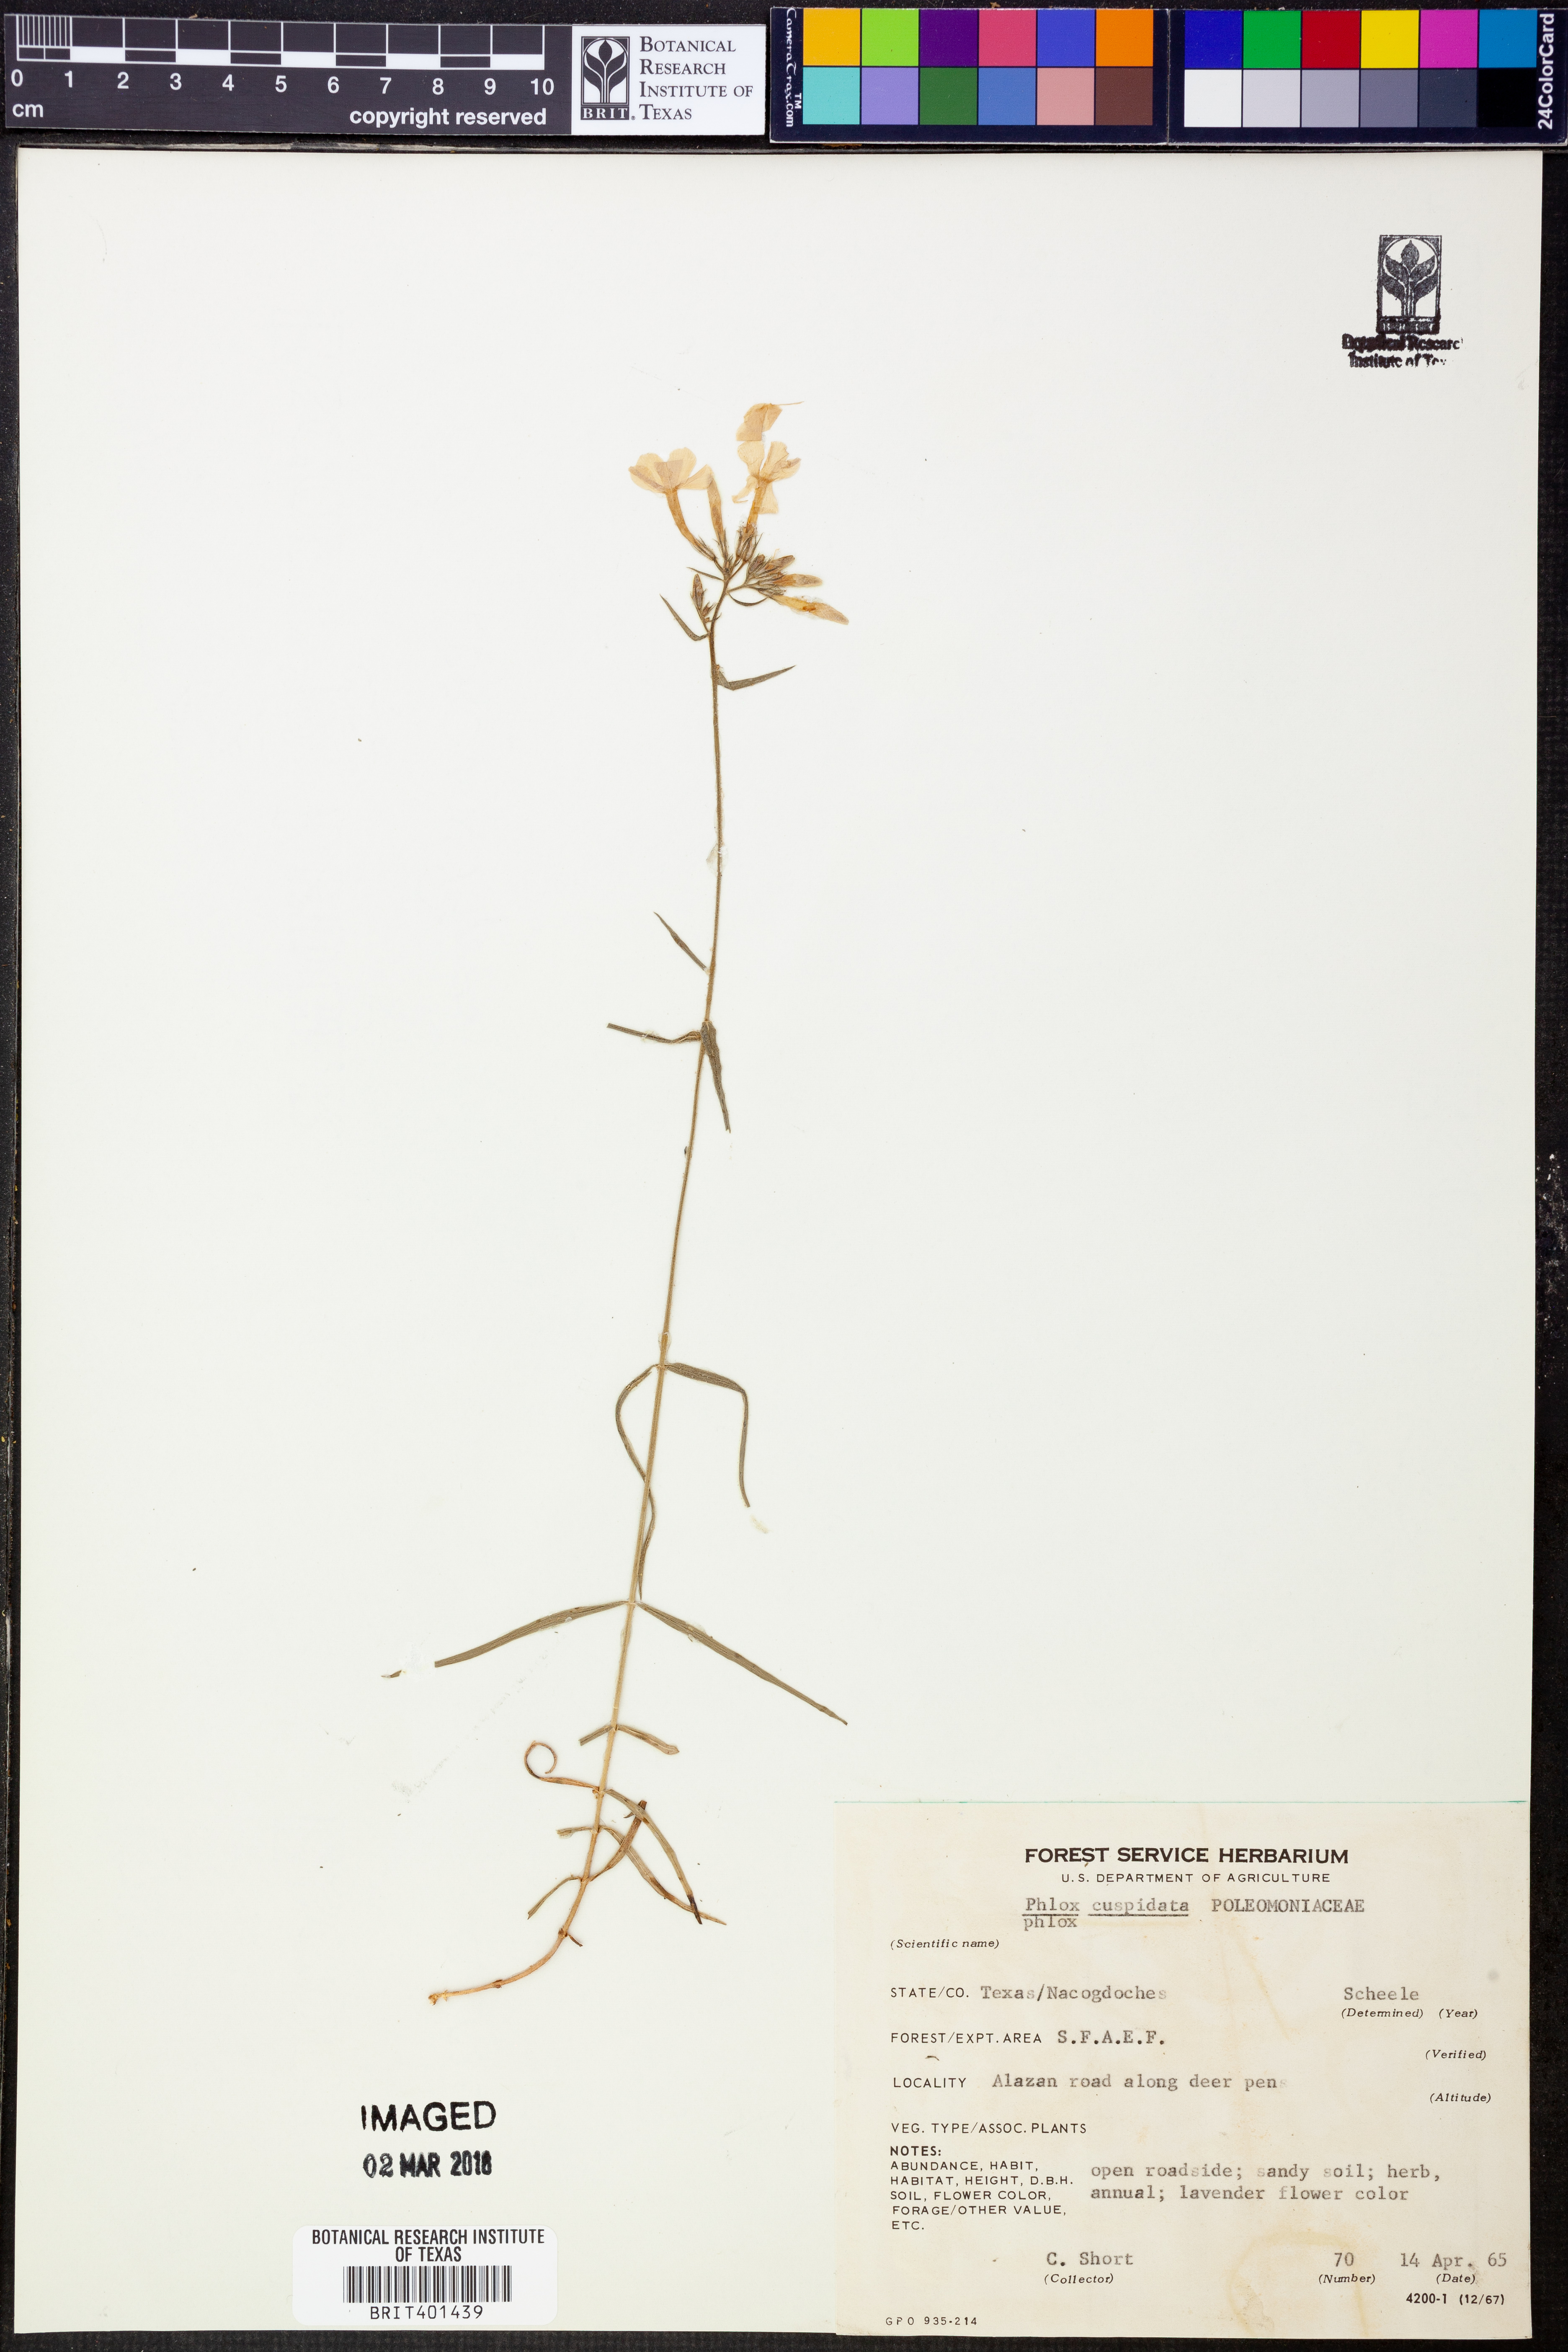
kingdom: Plantae
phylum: Tracheophyta
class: Magnoliopsida
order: Ericales
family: Polemoniaceae
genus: Phlox
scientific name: Phlox cuspidata
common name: Pointed phlox
